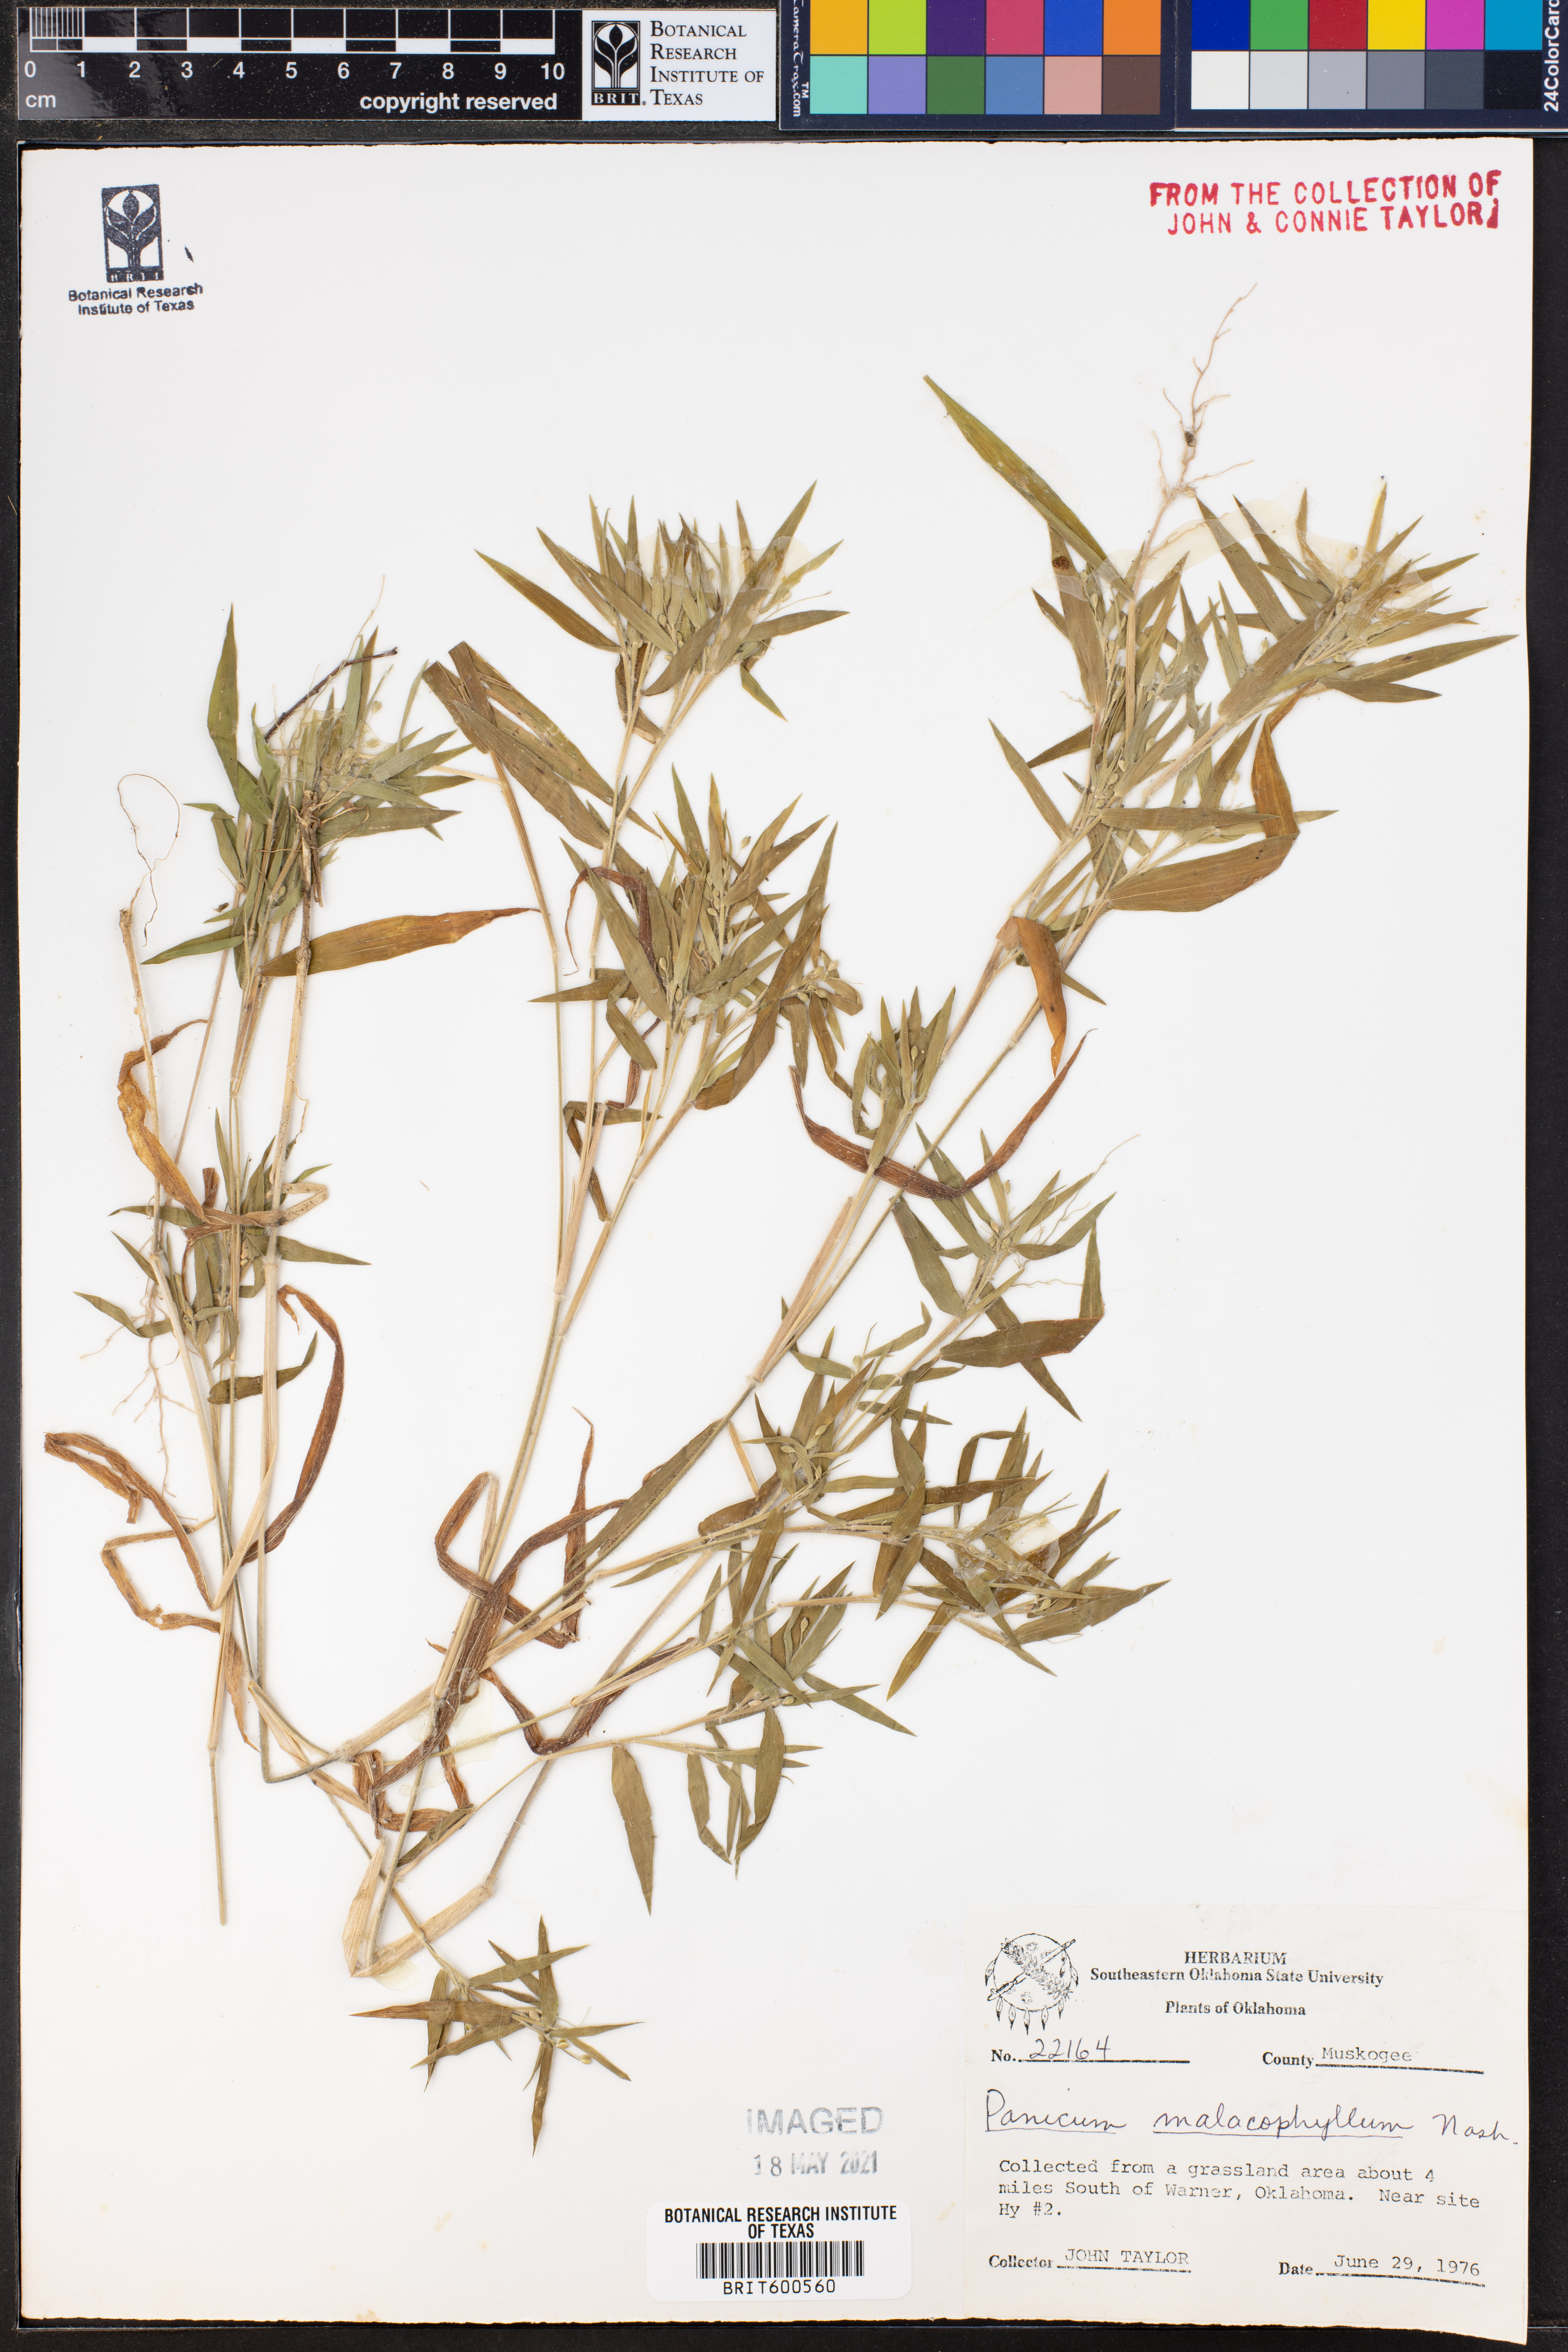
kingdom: Plantae
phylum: Tracheophyta
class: Liliopsida
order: Poales
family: Poaceae
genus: Dichanthelium
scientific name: Dichanthelium malacophyllum
